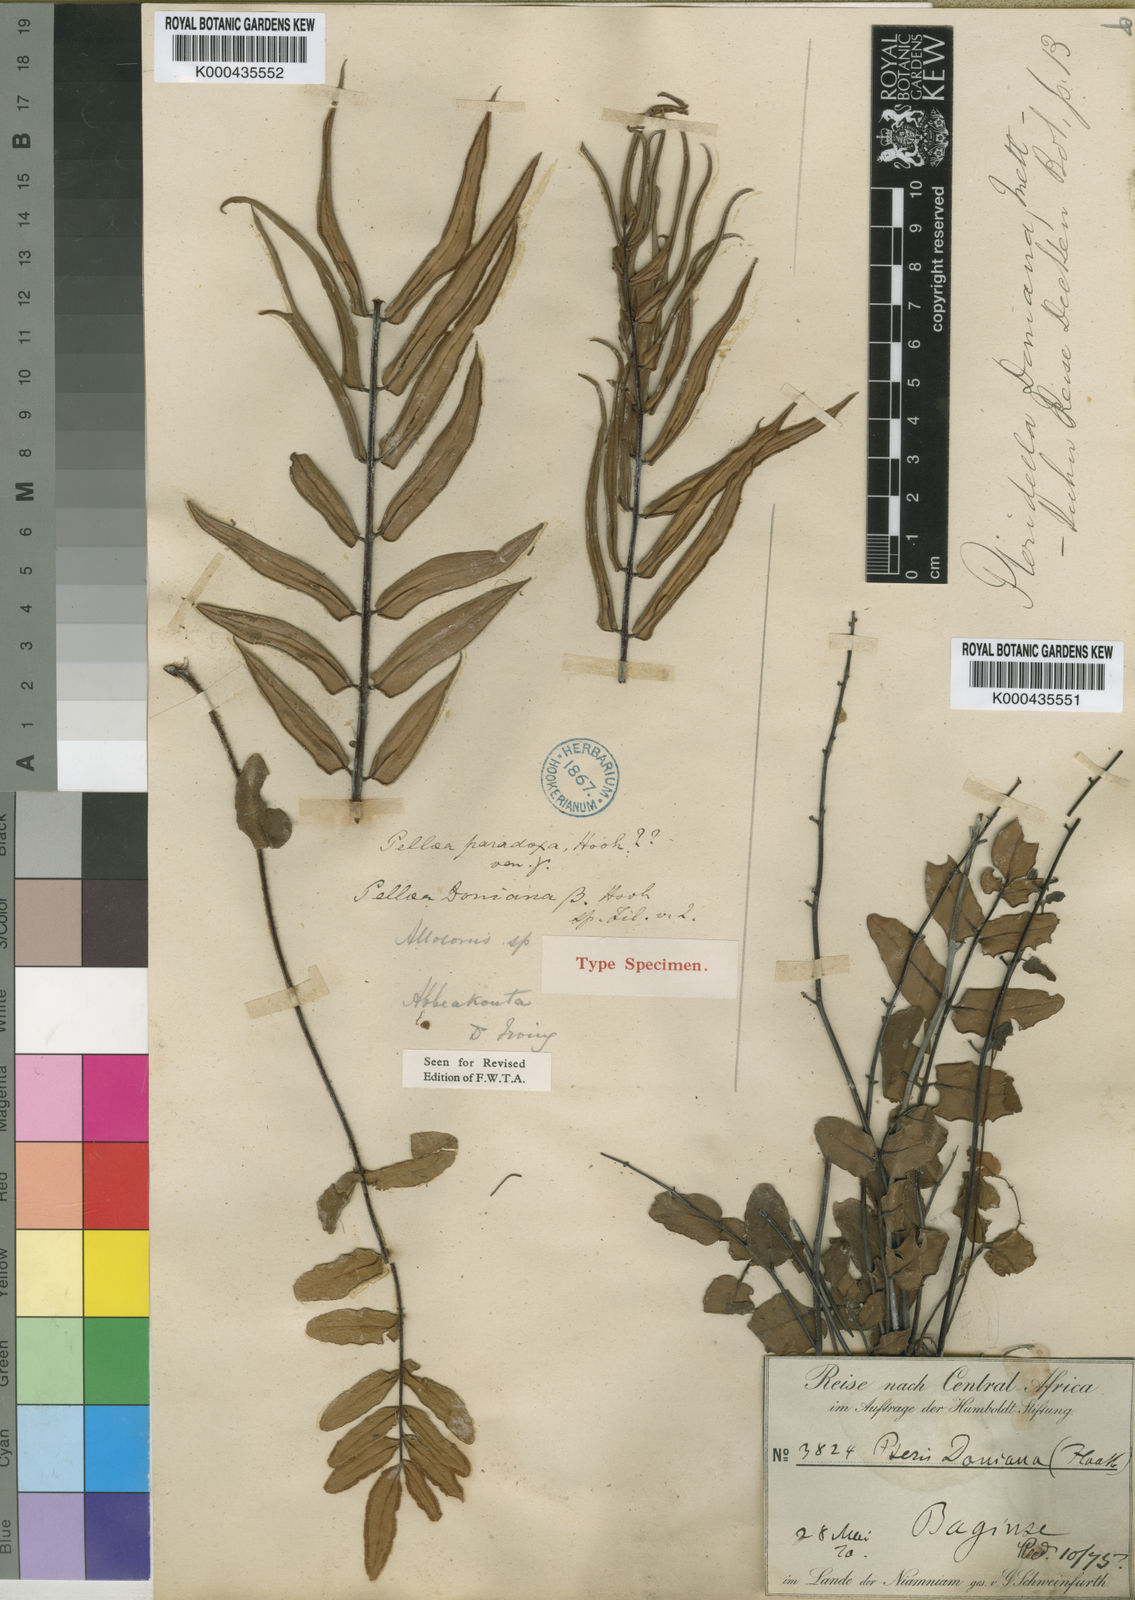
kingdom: Plantae
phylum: Tracheophyta
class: Polypodiopsida
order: Polypodiales
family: Pteridaceae
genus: Pellaea
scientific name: Pellaea doniana
